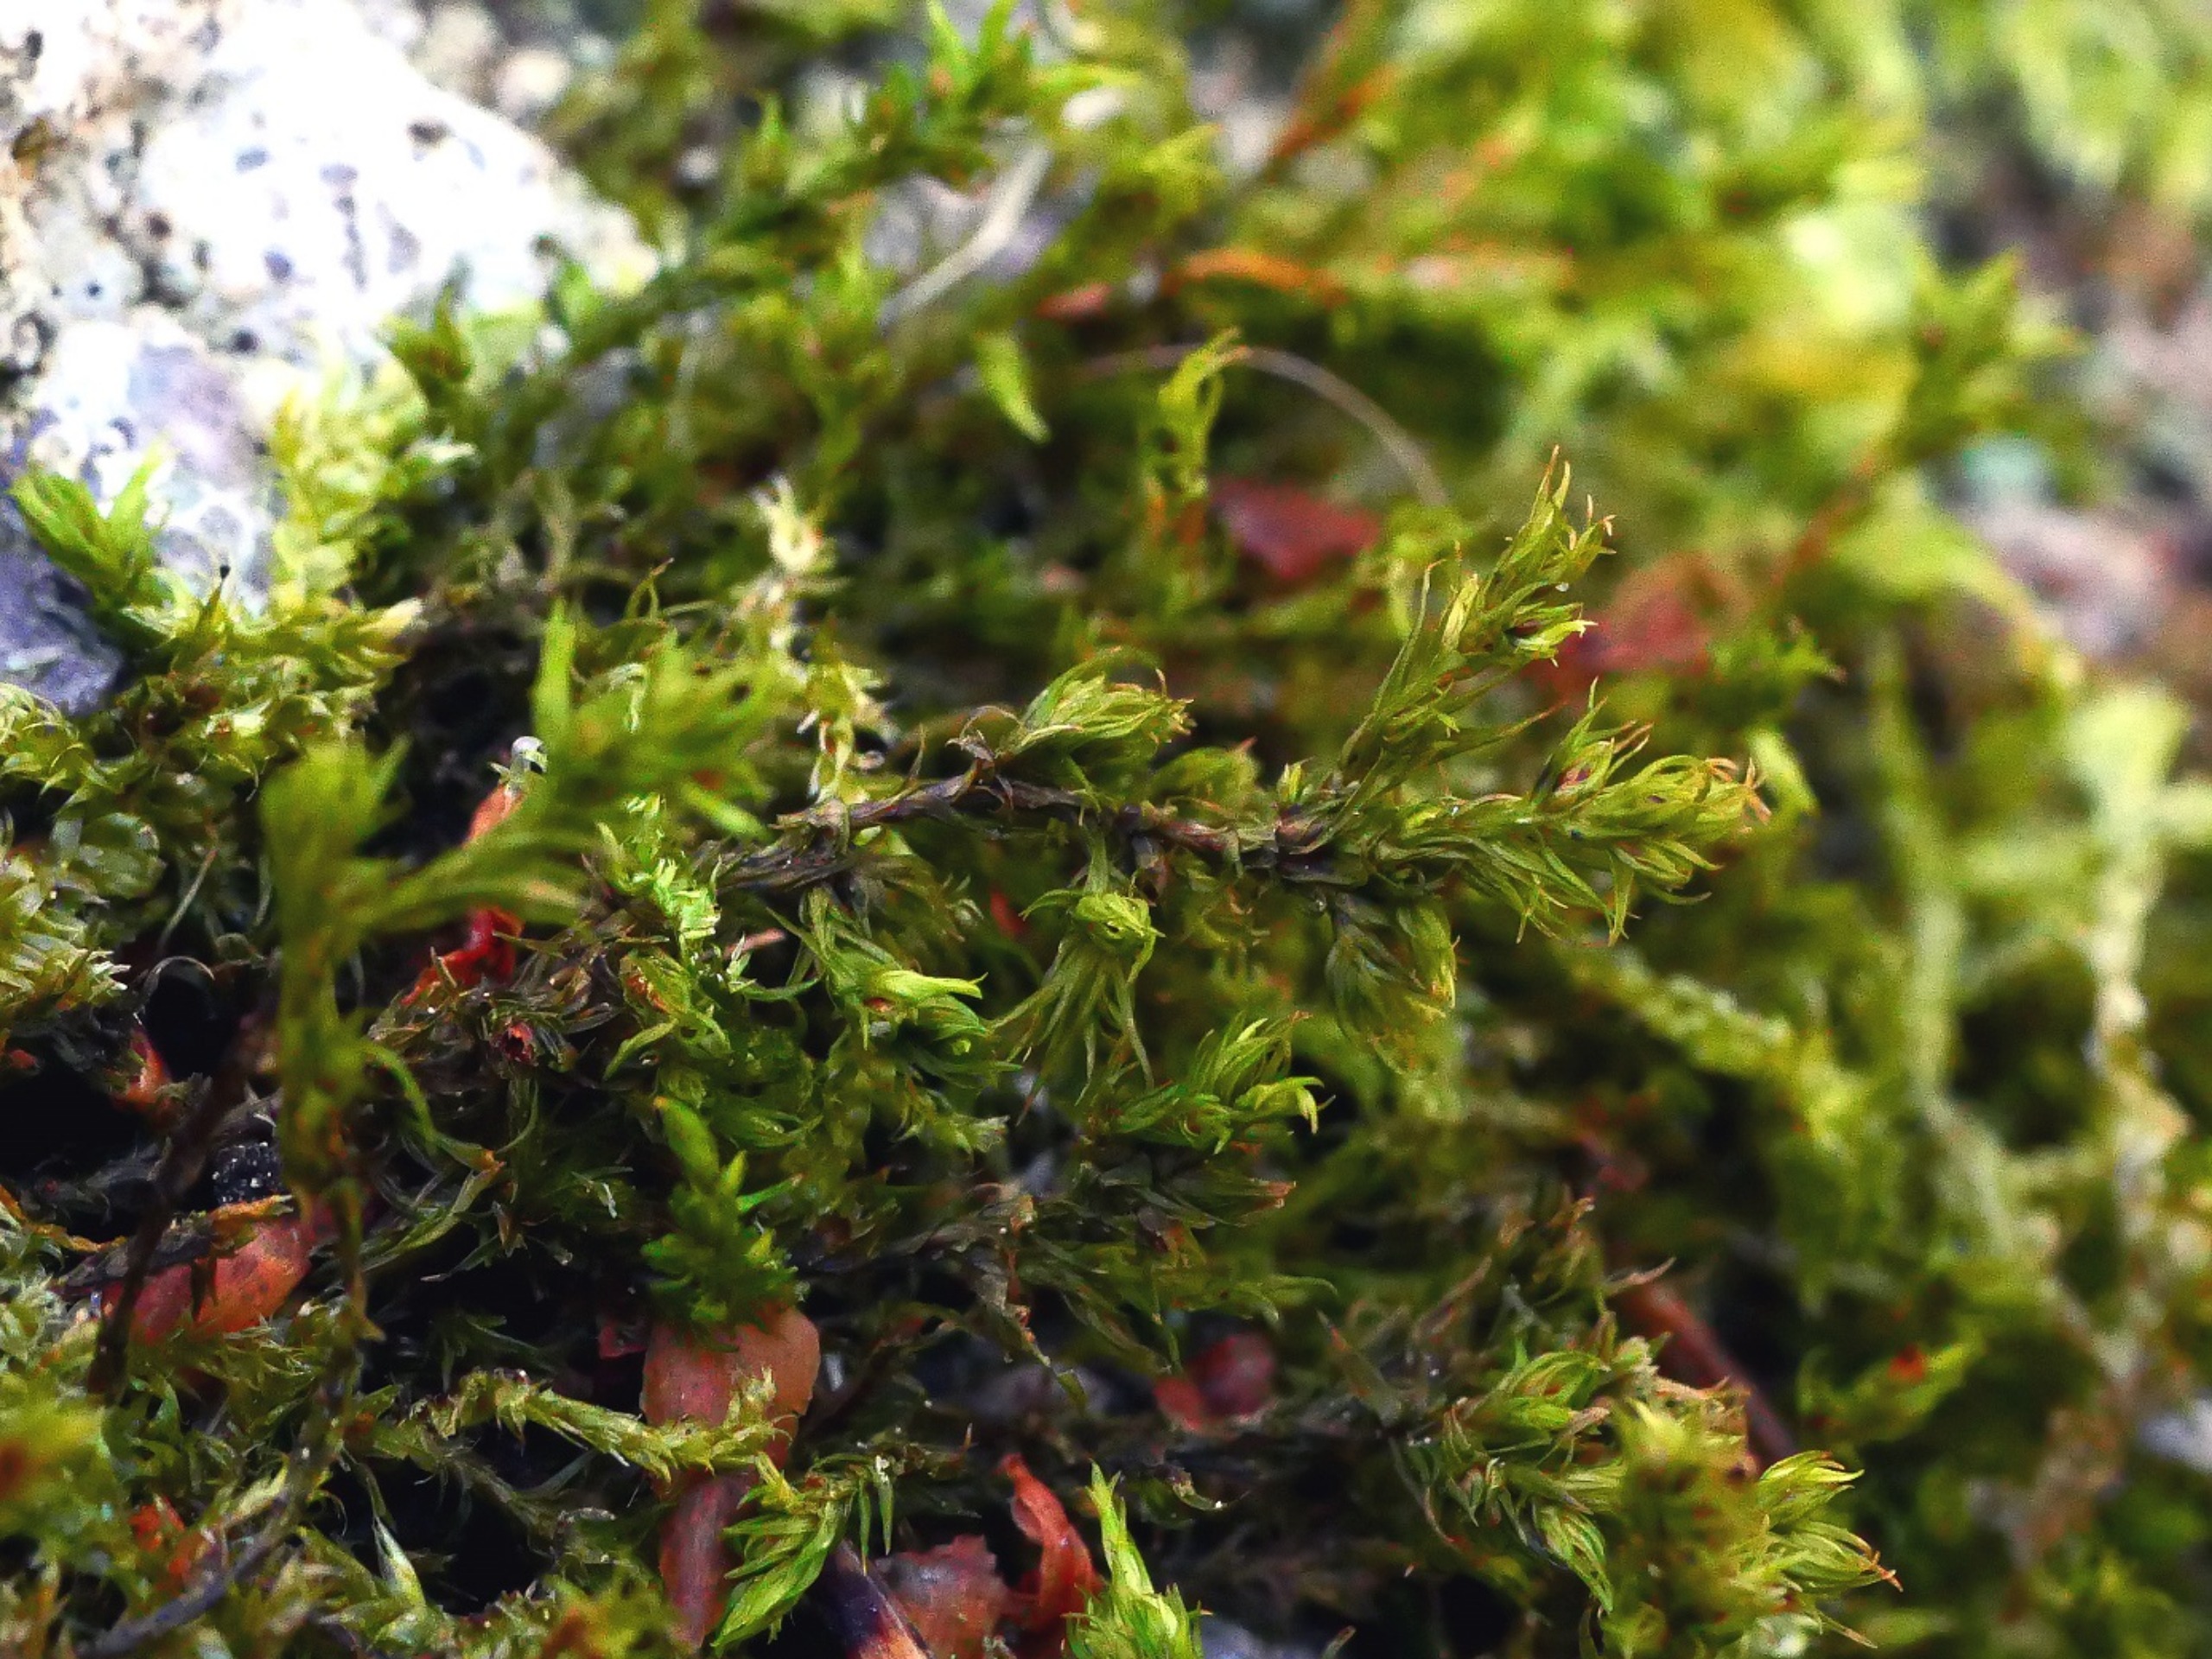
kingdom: Plantae
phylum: Bryophyta
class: Bryopsida
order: Grimmiales
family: Grimmiaceae
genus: Dilutineuron
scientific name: Dilutineuron fasciculare
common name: Knippe-børstemos
